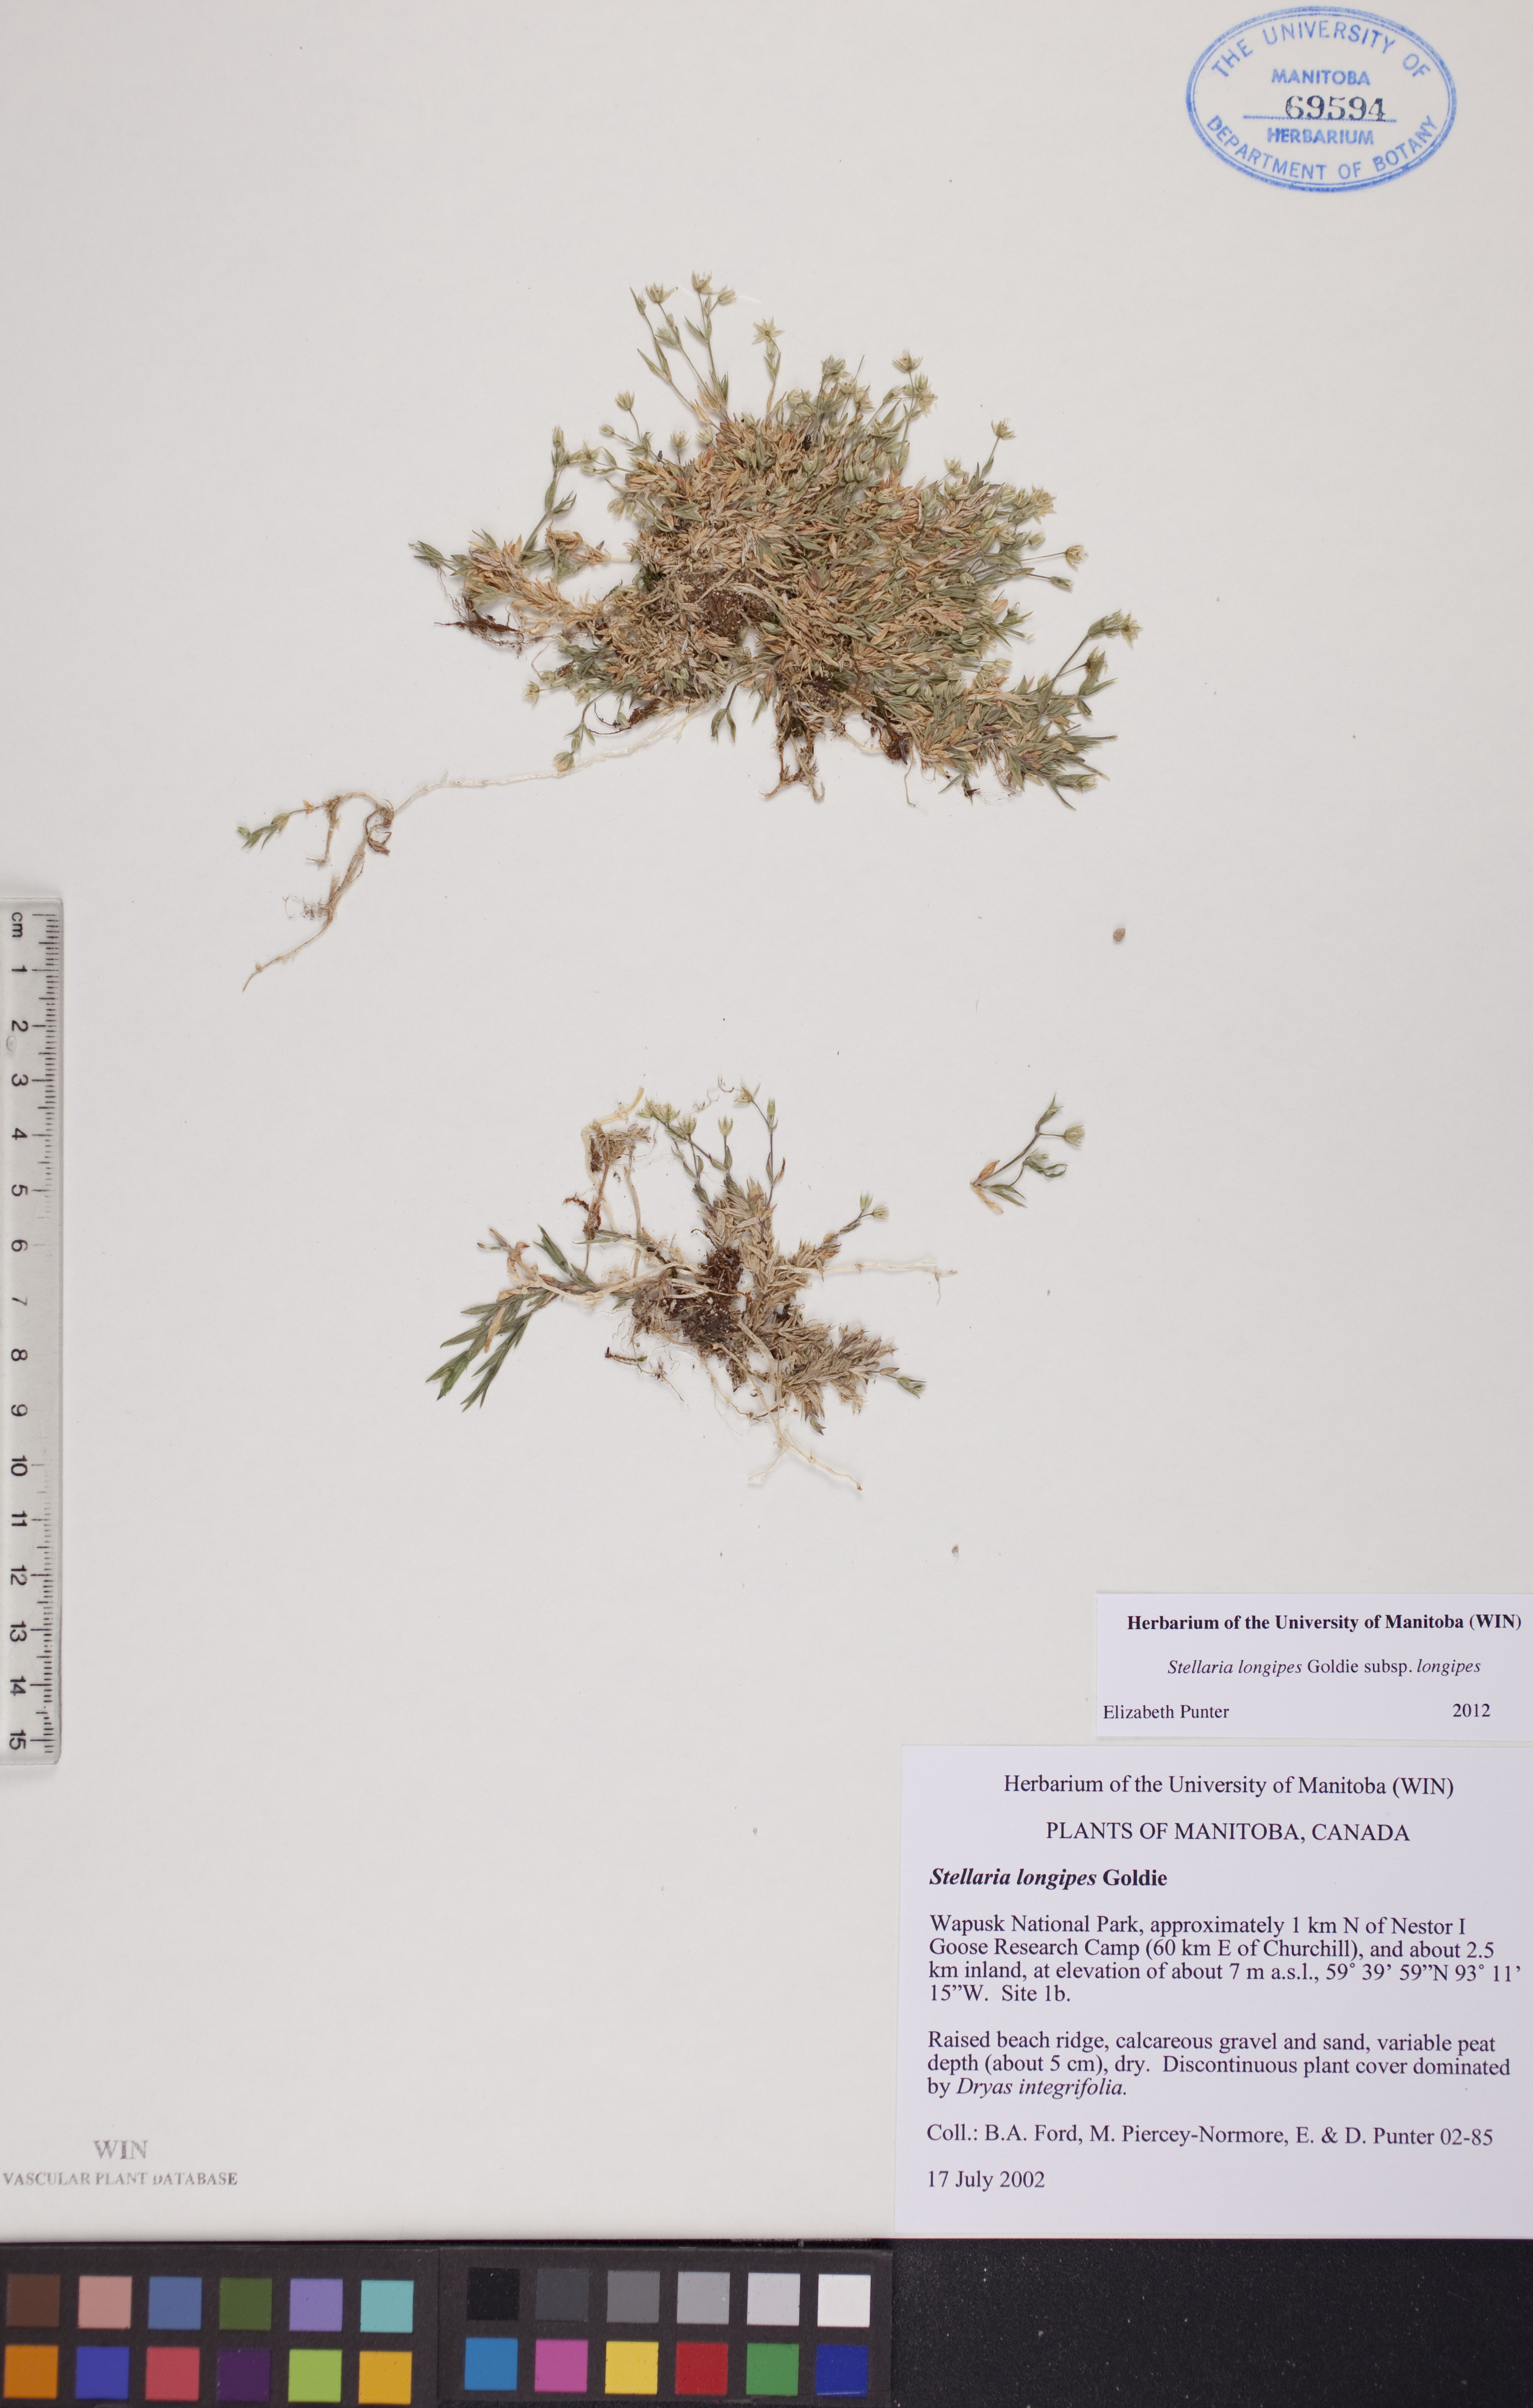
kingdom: Plantae
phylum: Tracheophyta
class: Magnoliopsida
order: Caryophyllales
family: Caryophyllaceae
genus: Stellaria
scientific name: Stellaria longipes
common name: Goldie's starwort
